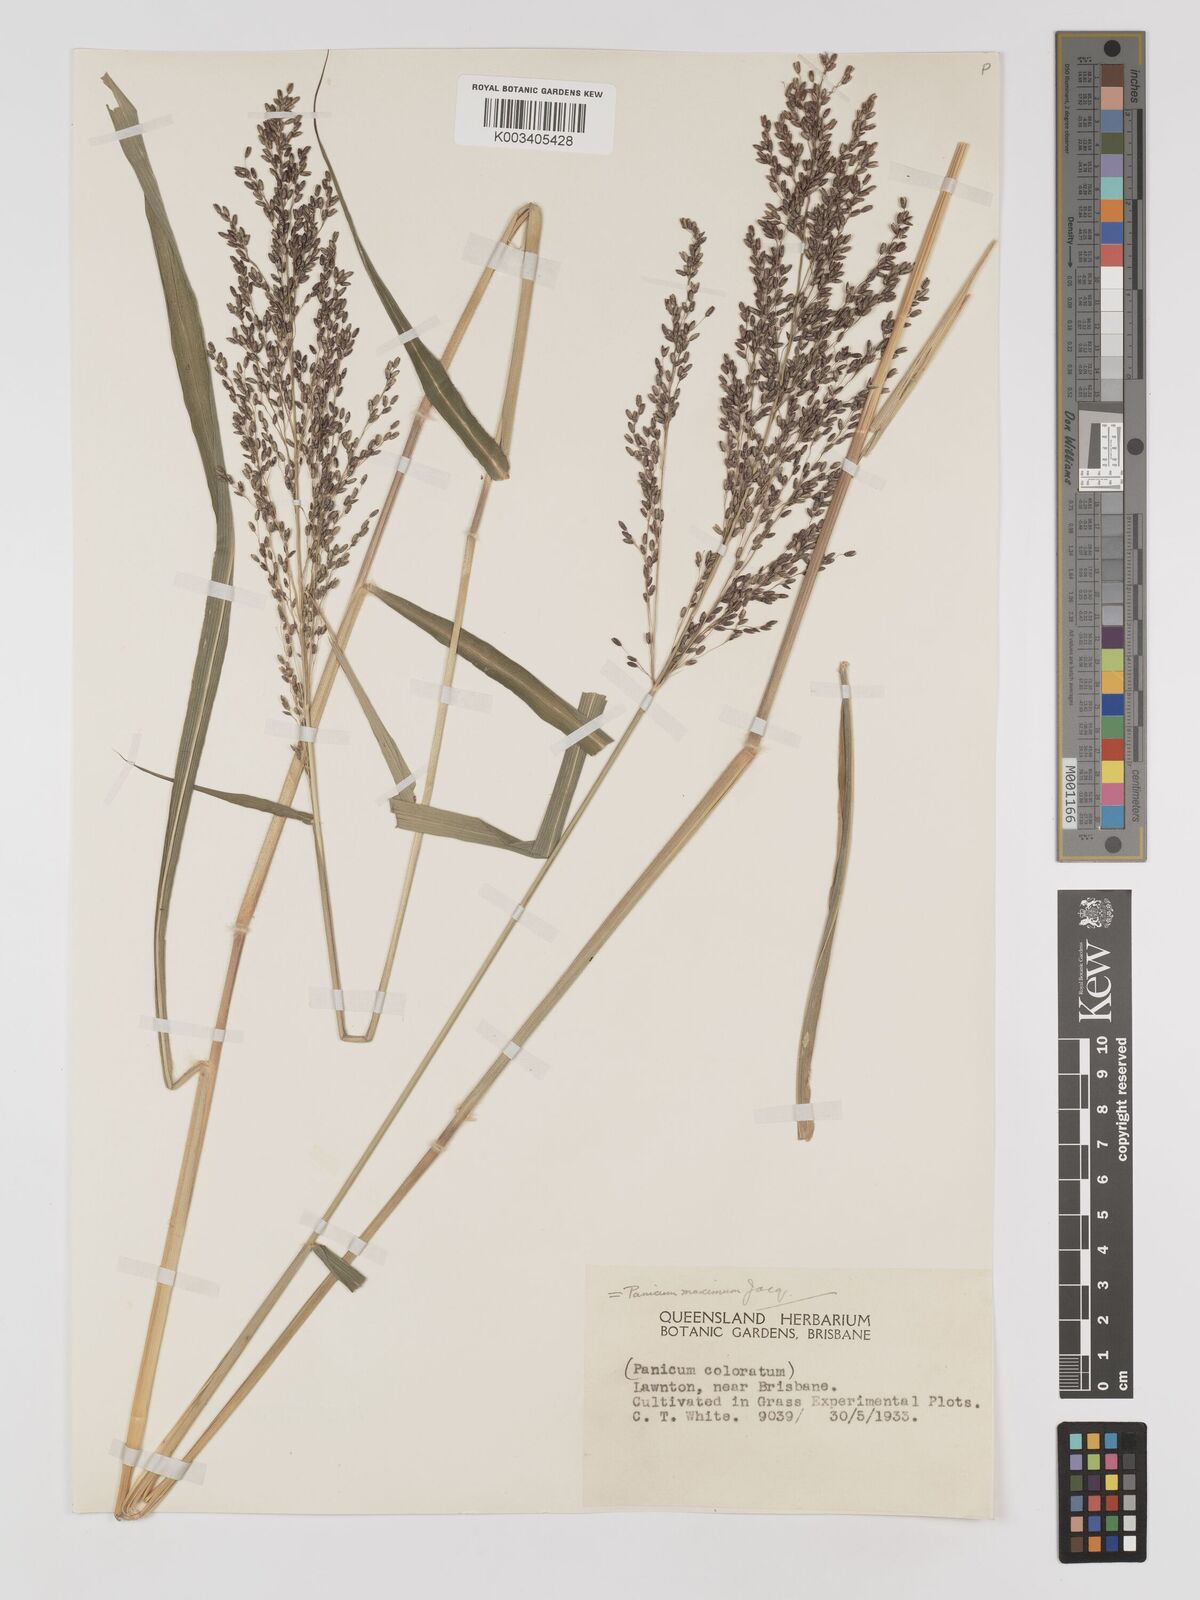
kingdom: Plantae
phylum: Tracheophyta
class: Liliopsida
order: Poales
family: Poaceae
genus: Megathyrsus
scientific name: Megathyrsus maximus
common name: Guineagrass
